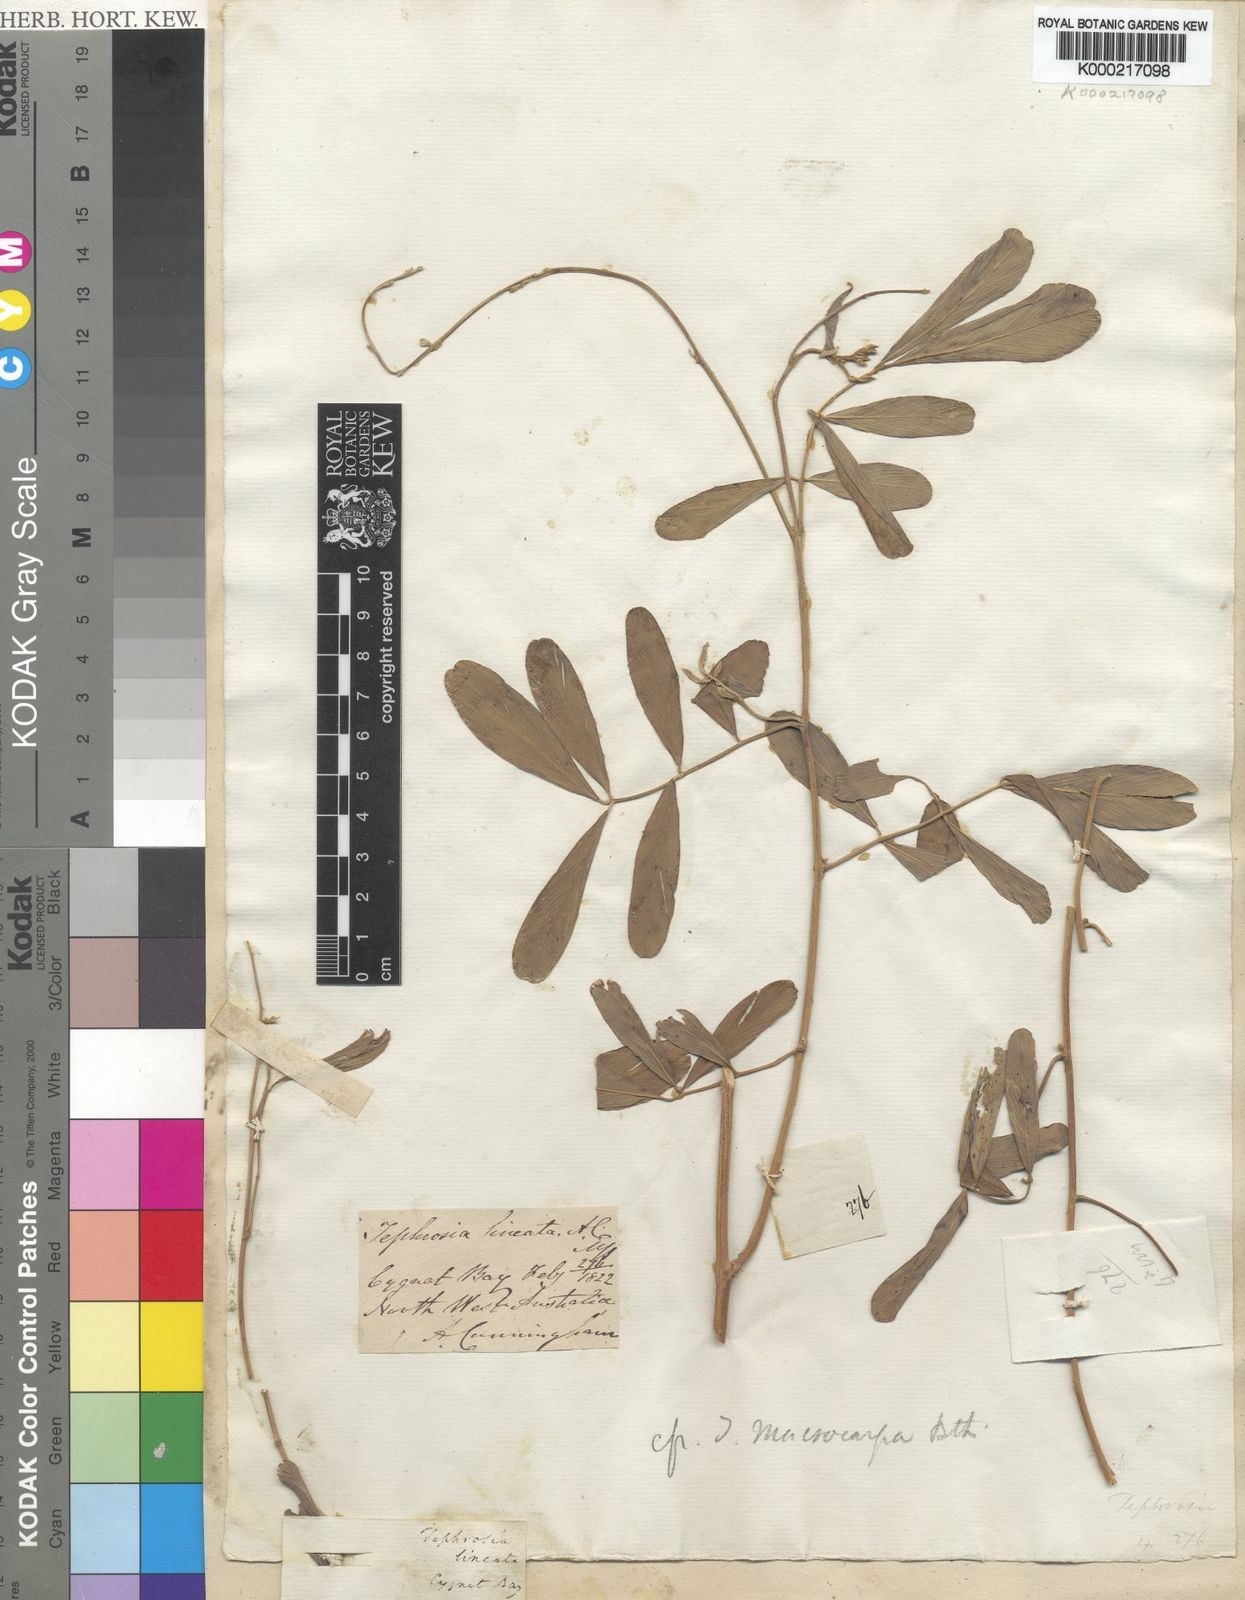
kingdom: Plantae
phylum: Tracheophyta
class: Magnoliopsida
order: Fabales
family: Fabaceae
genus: Tephrosia
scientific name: Tephrosia macrocarpa
